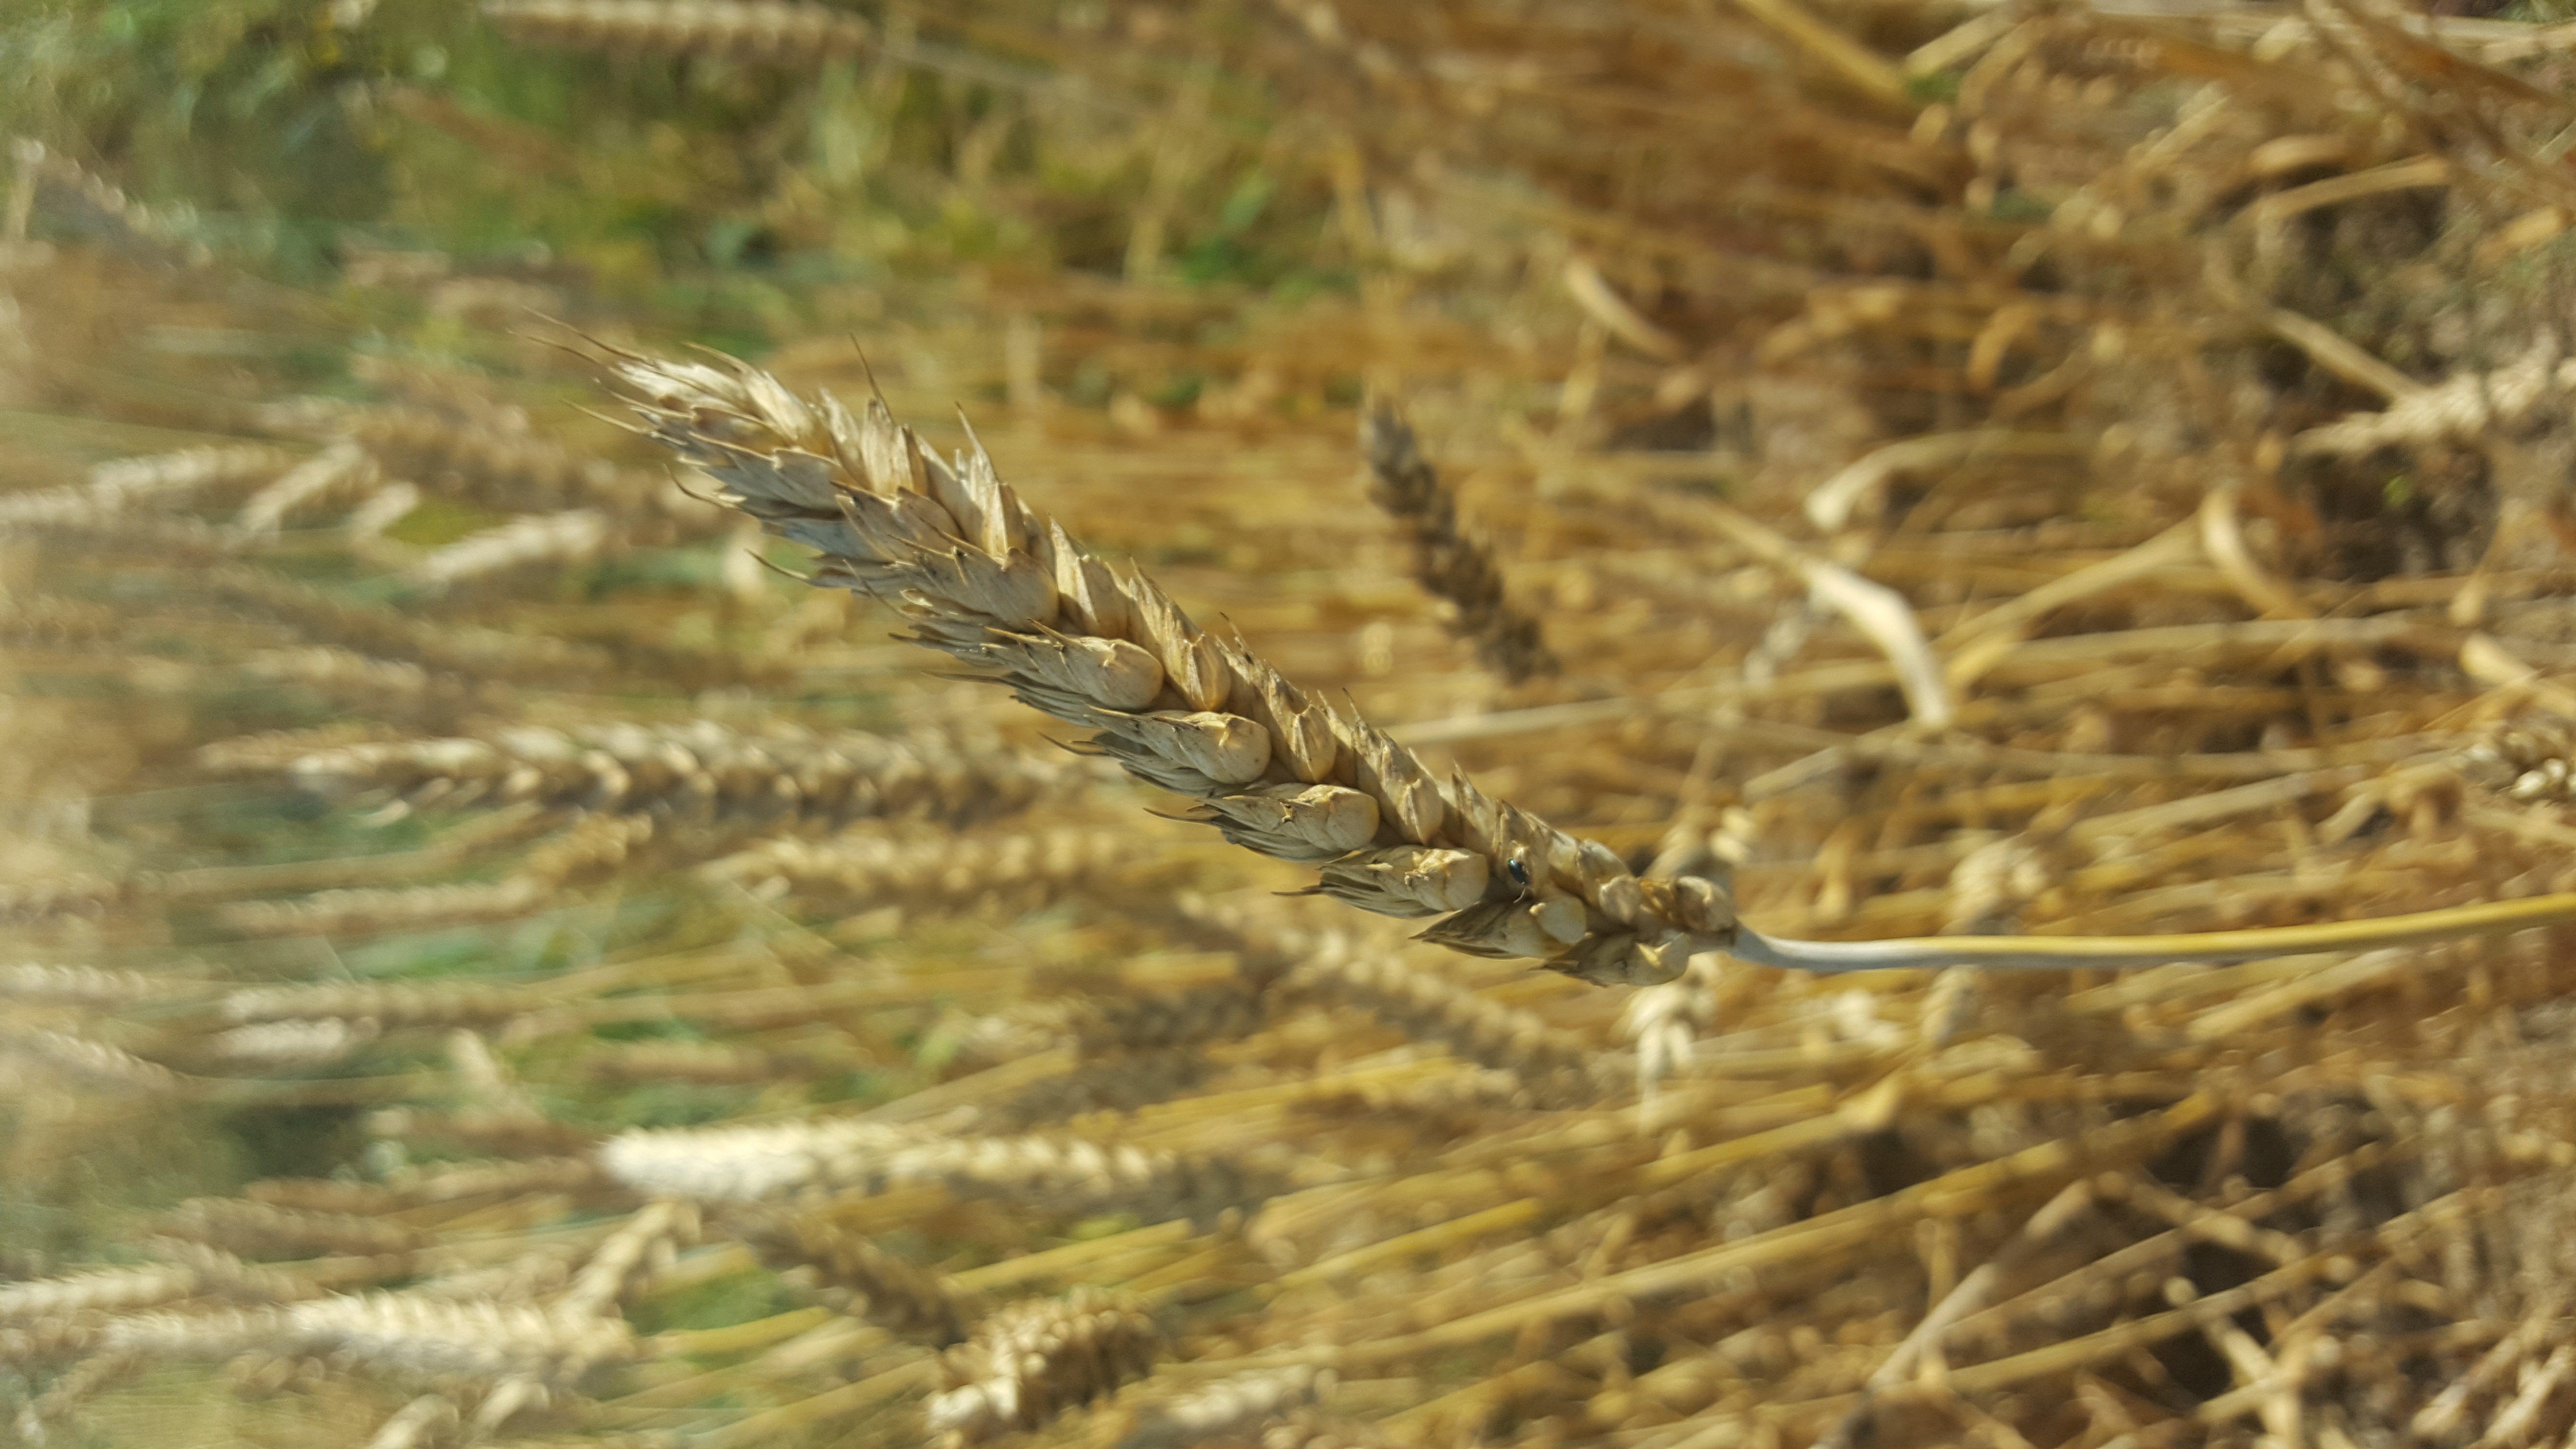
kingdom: Plantae
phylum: Tracheophyta
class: Liliopsida
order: Poales
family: Poaceae
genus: Triticum
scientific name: Triticum aestivum
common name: Common wheat
